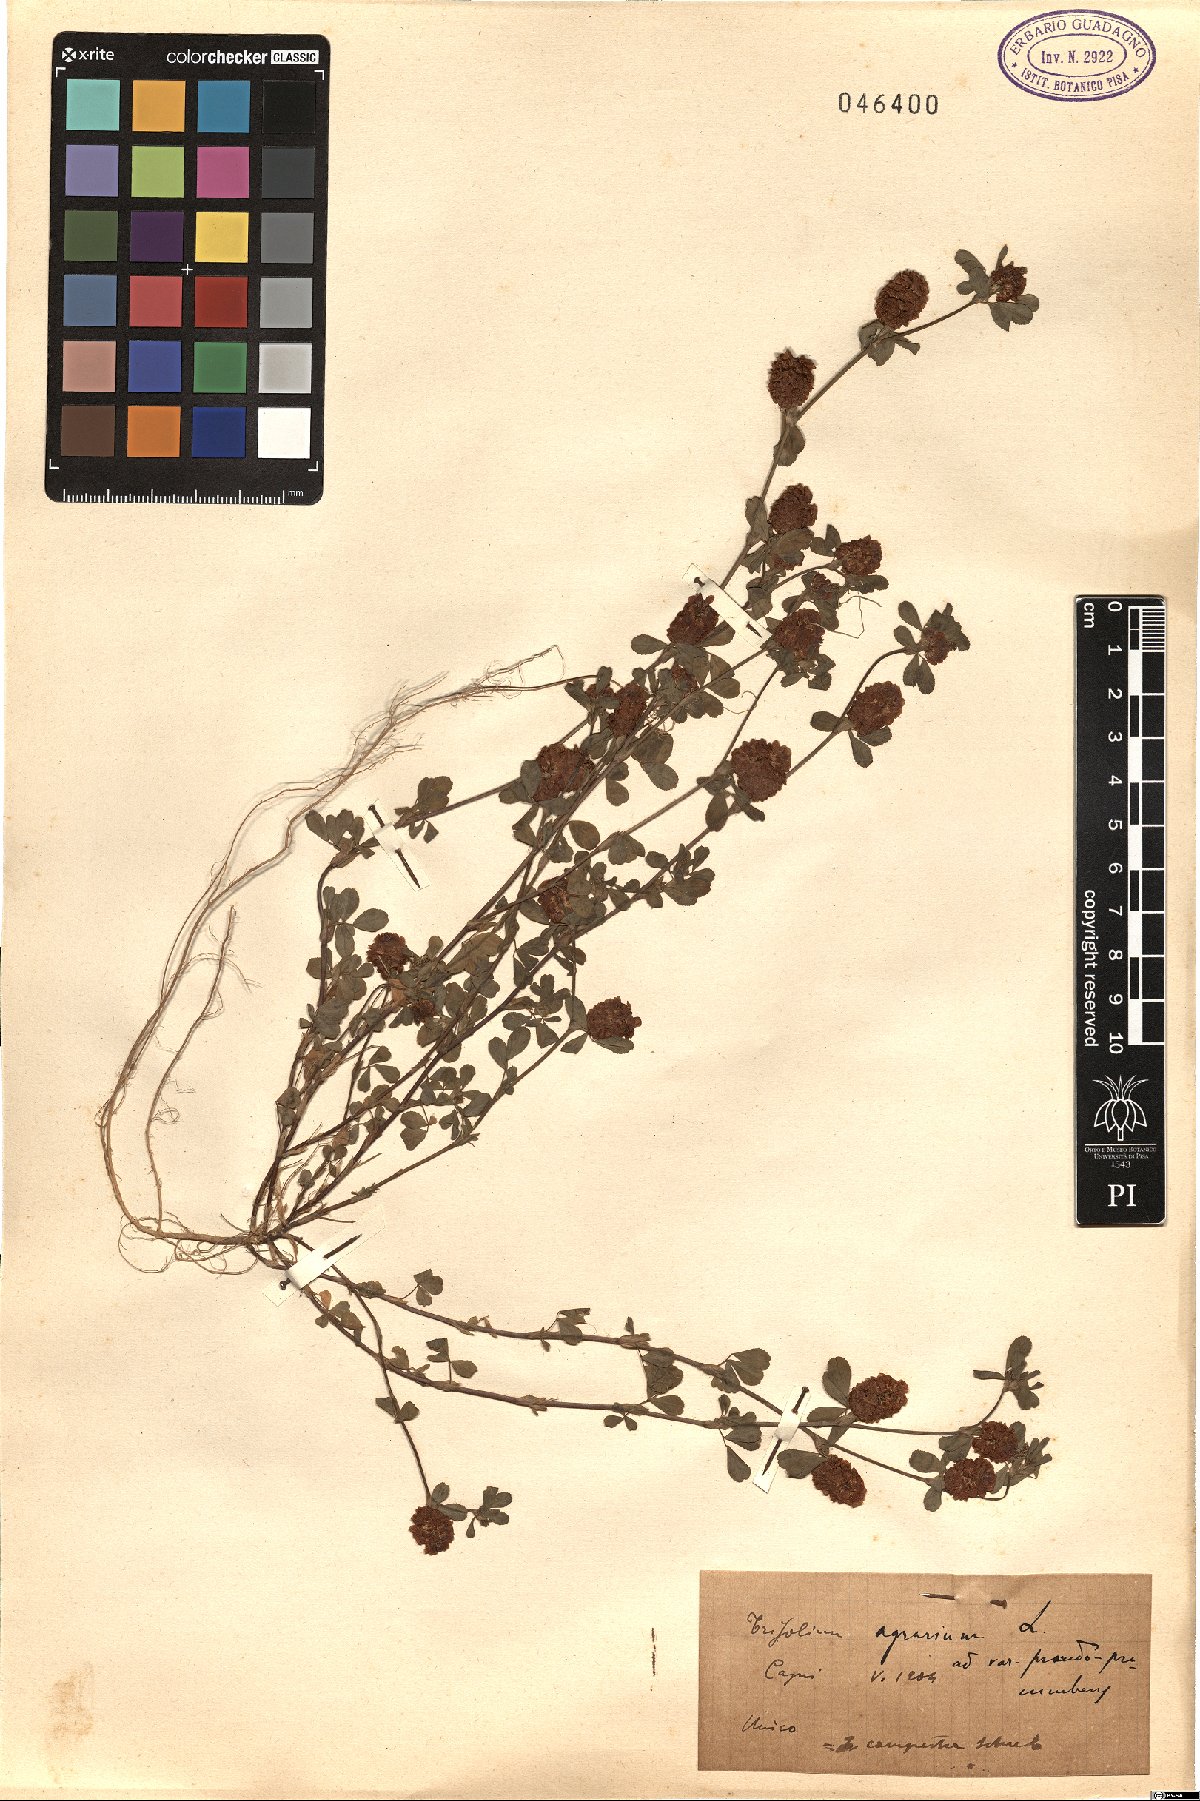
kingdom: Plantae
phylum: Tracheophyta
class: Magnoliopsida
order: Fabales
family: Fabaceae
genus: Trifolium
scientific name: Trifolium campestre
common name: Field clover
